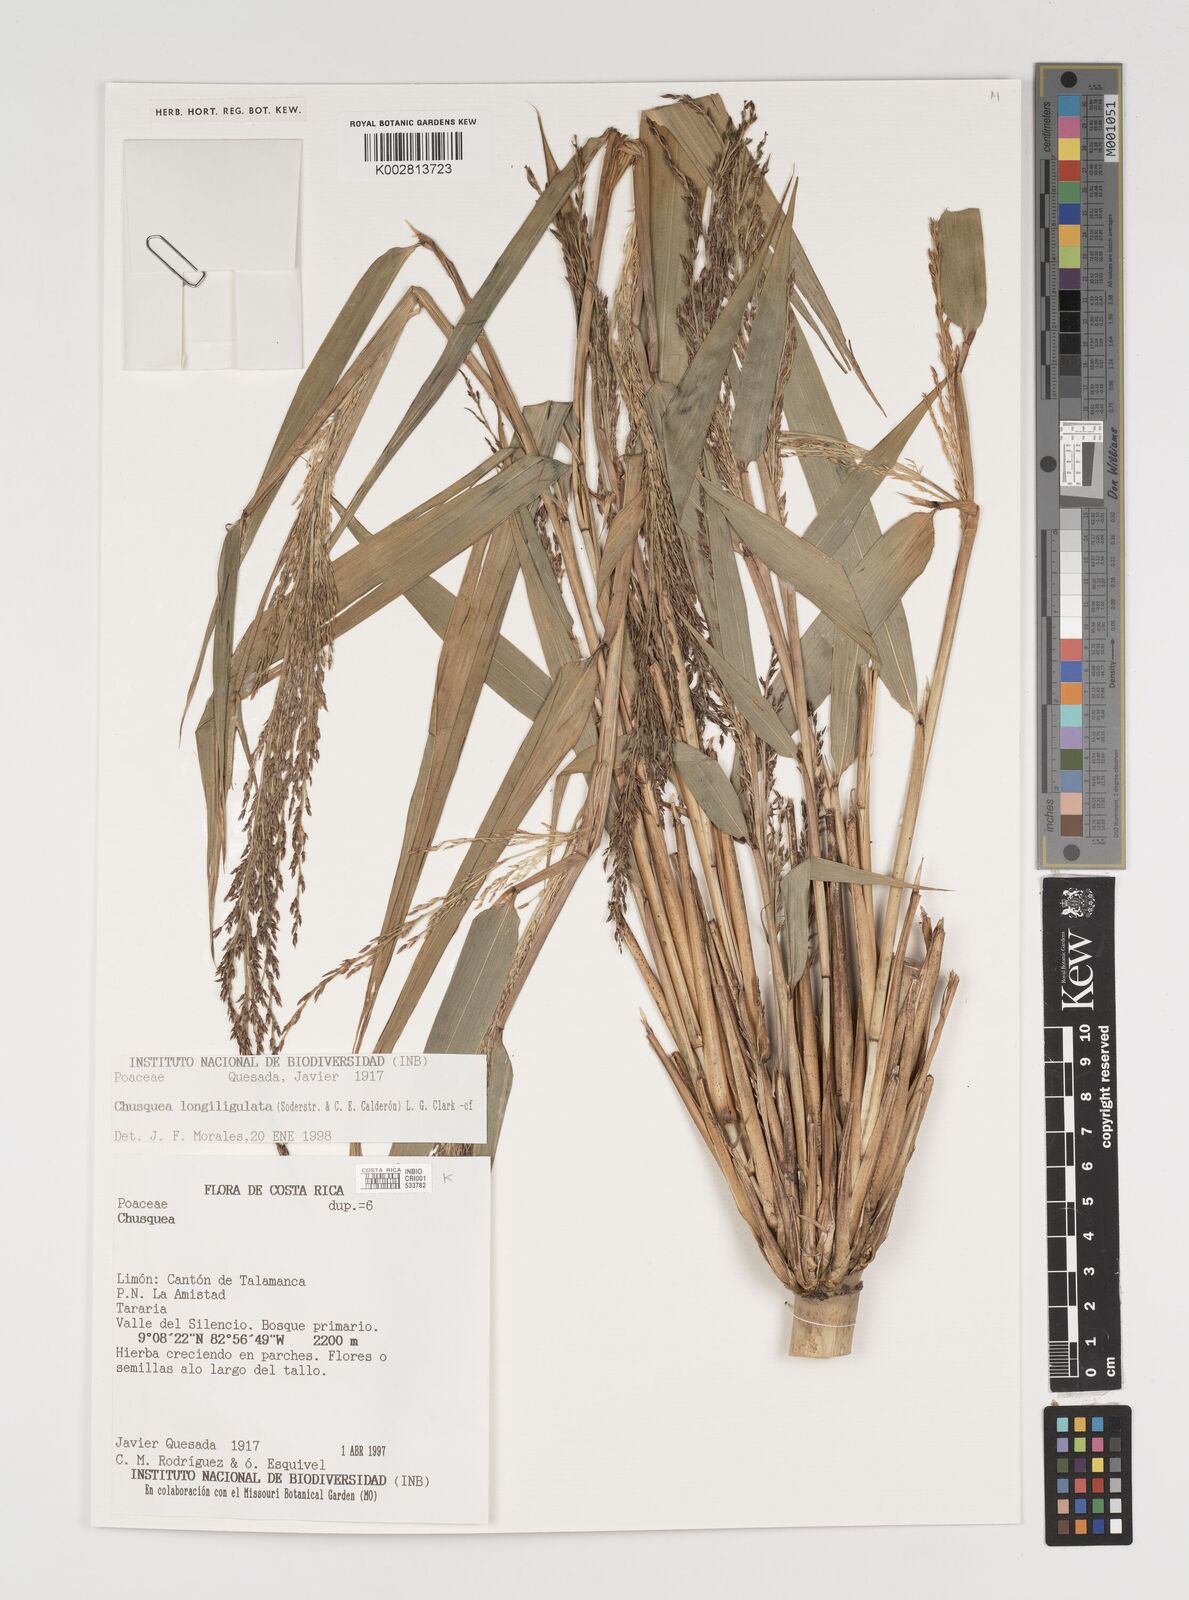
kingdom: Plantae
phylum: Tracheophyta
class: Liliopsida
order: Poales
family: Poaceae
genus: Chusquea
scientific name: Chusquea longiligulata
